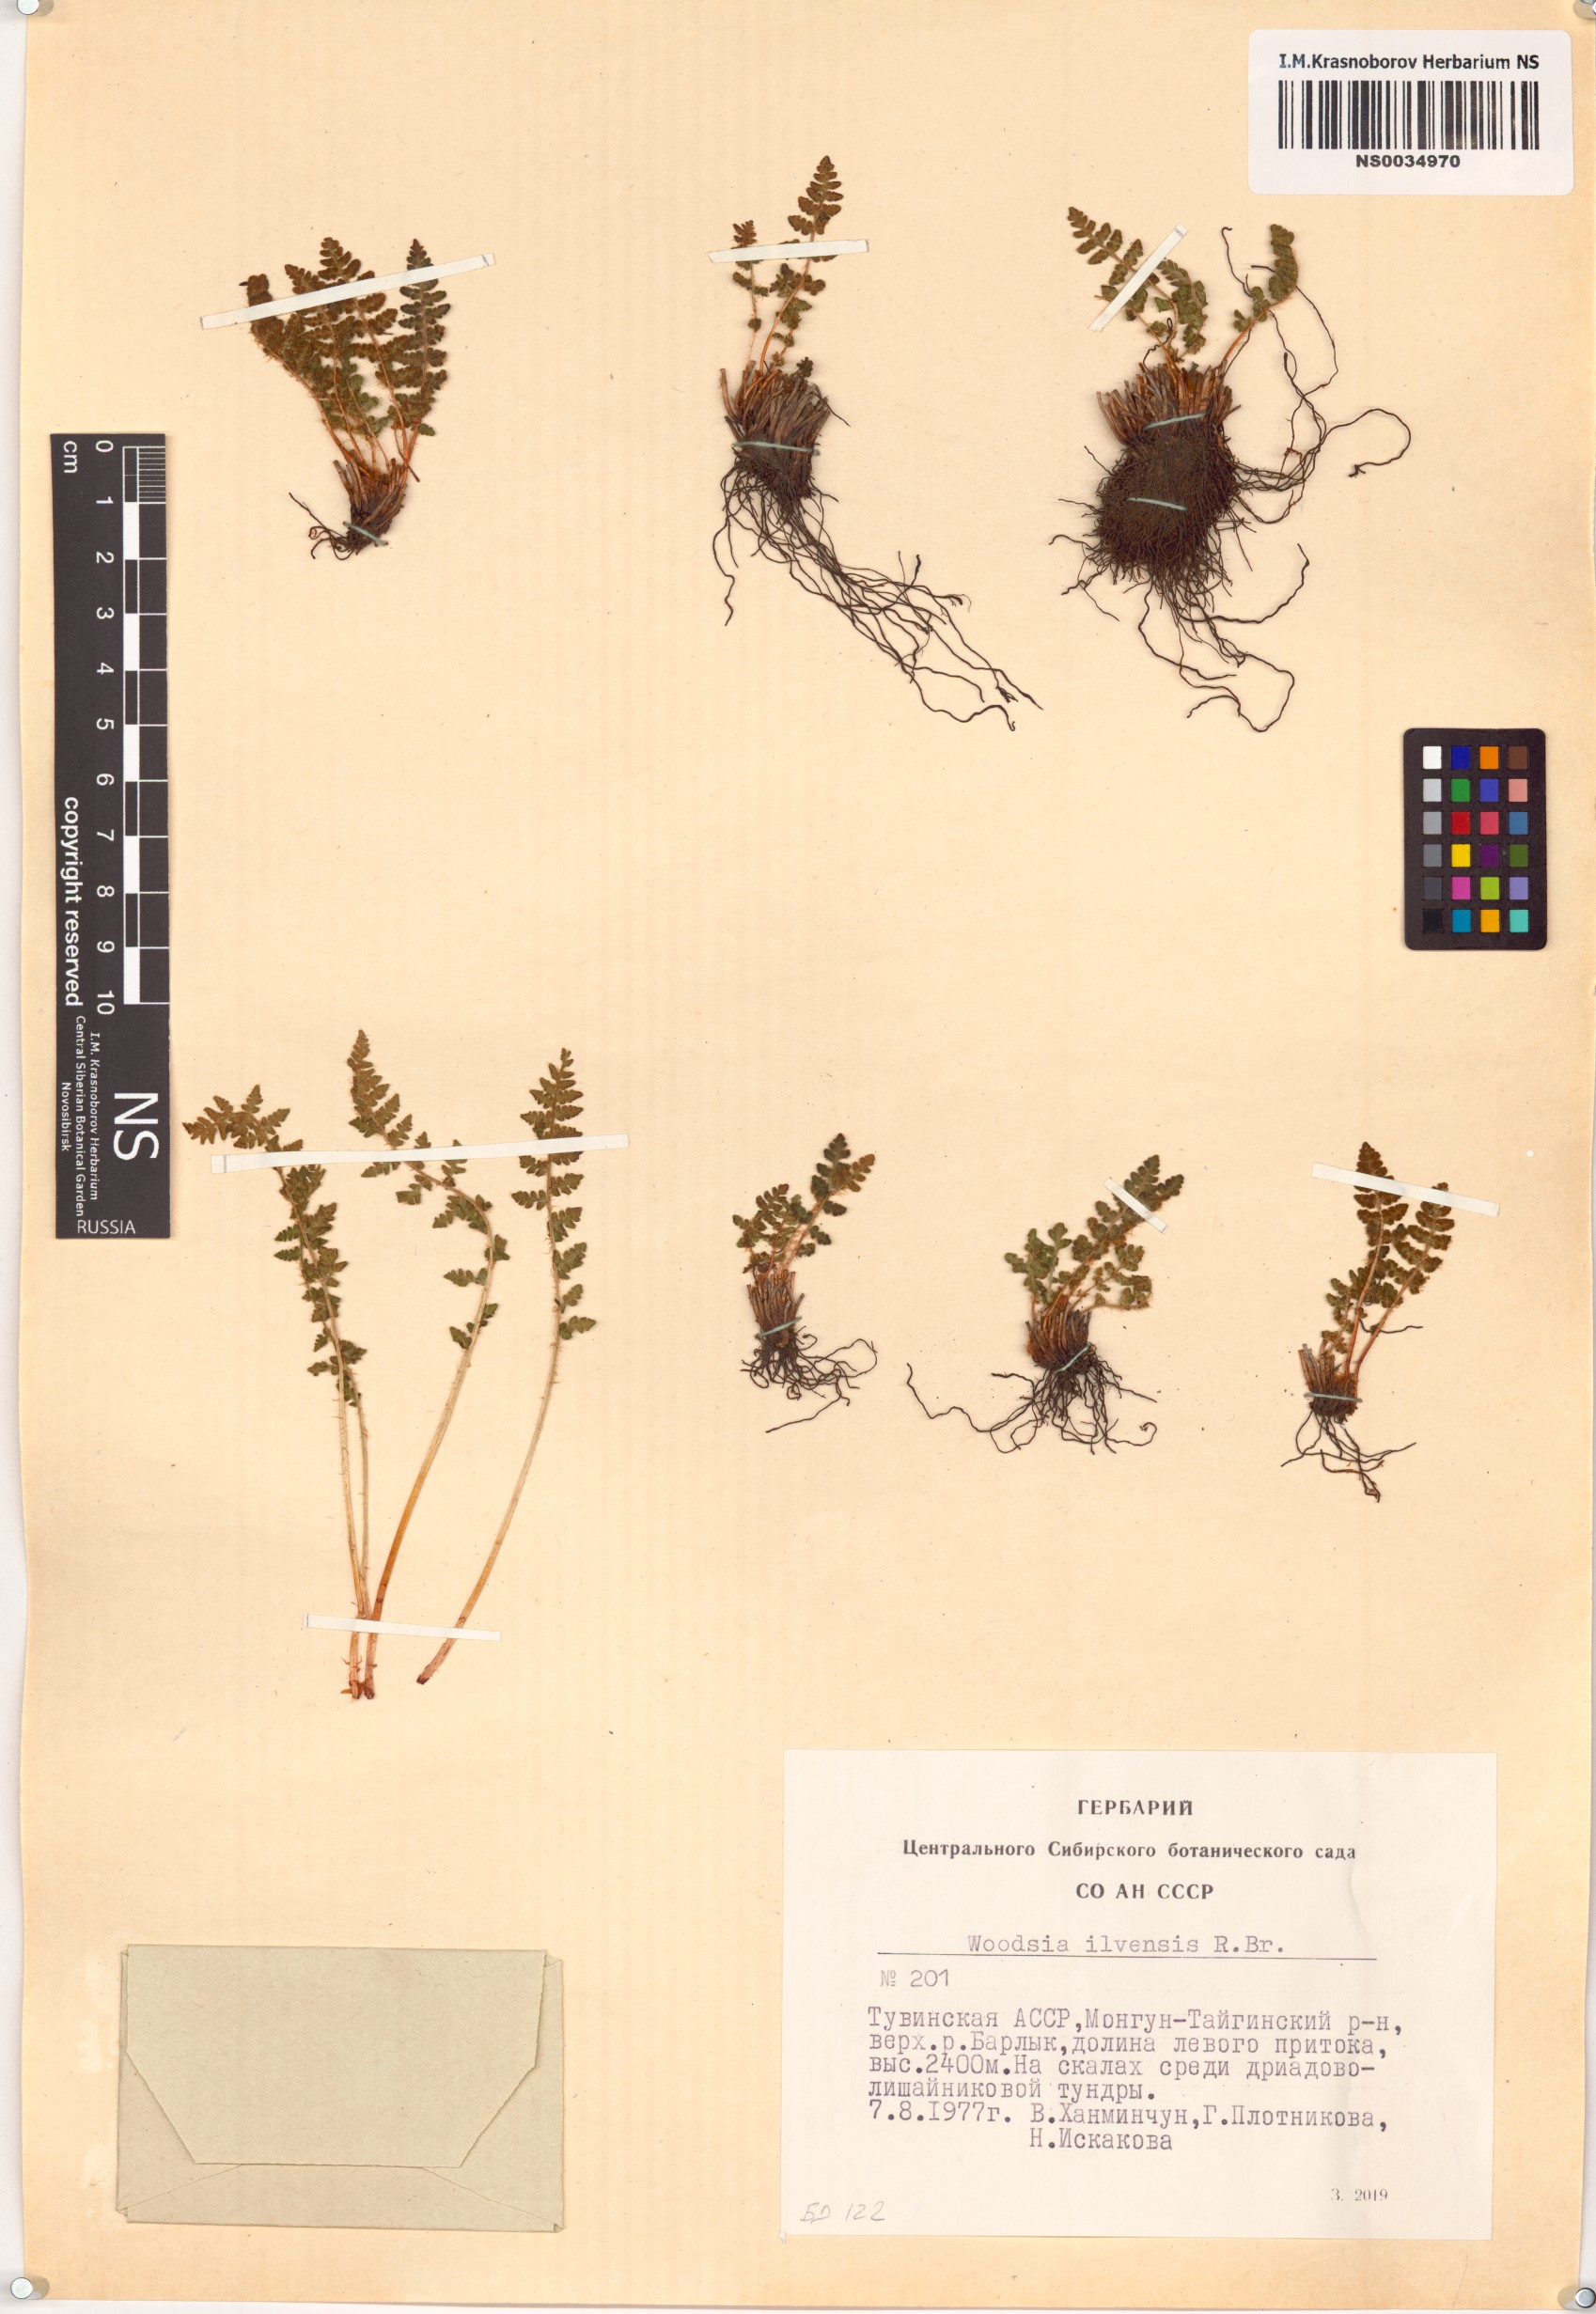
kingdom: Plantae
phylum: Tracheophyta
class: Polypodiopsida
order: Polypodiales
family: Woodsiaceae
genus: Woodsia
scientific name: Woodsia ilvensis
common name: Fragrant woodsia
